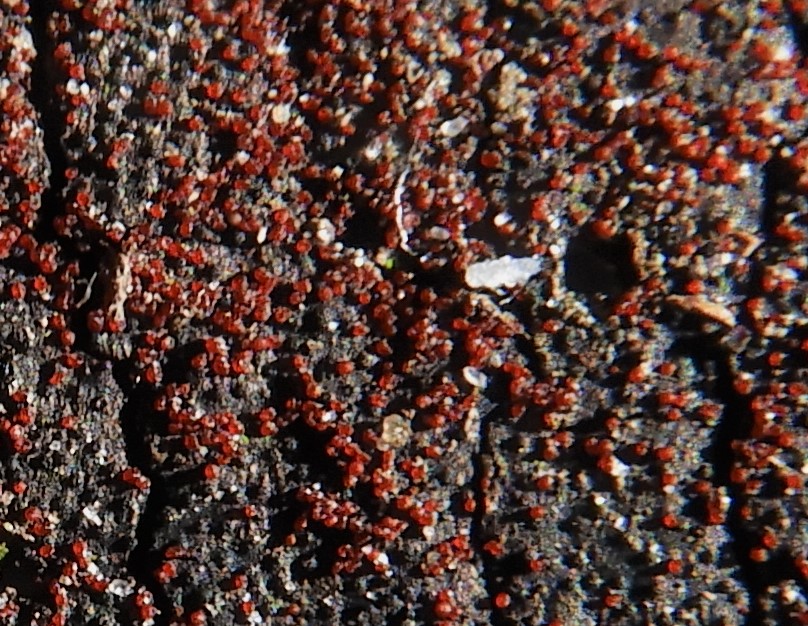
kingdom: Fungi
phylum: Ascomycota
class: Sordariomycetes
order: Hypocreales
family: Nectriaceae
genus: Dialonectria
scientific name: Dialonectria episphaeria
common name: kulskorpe-cinnobersvamp
